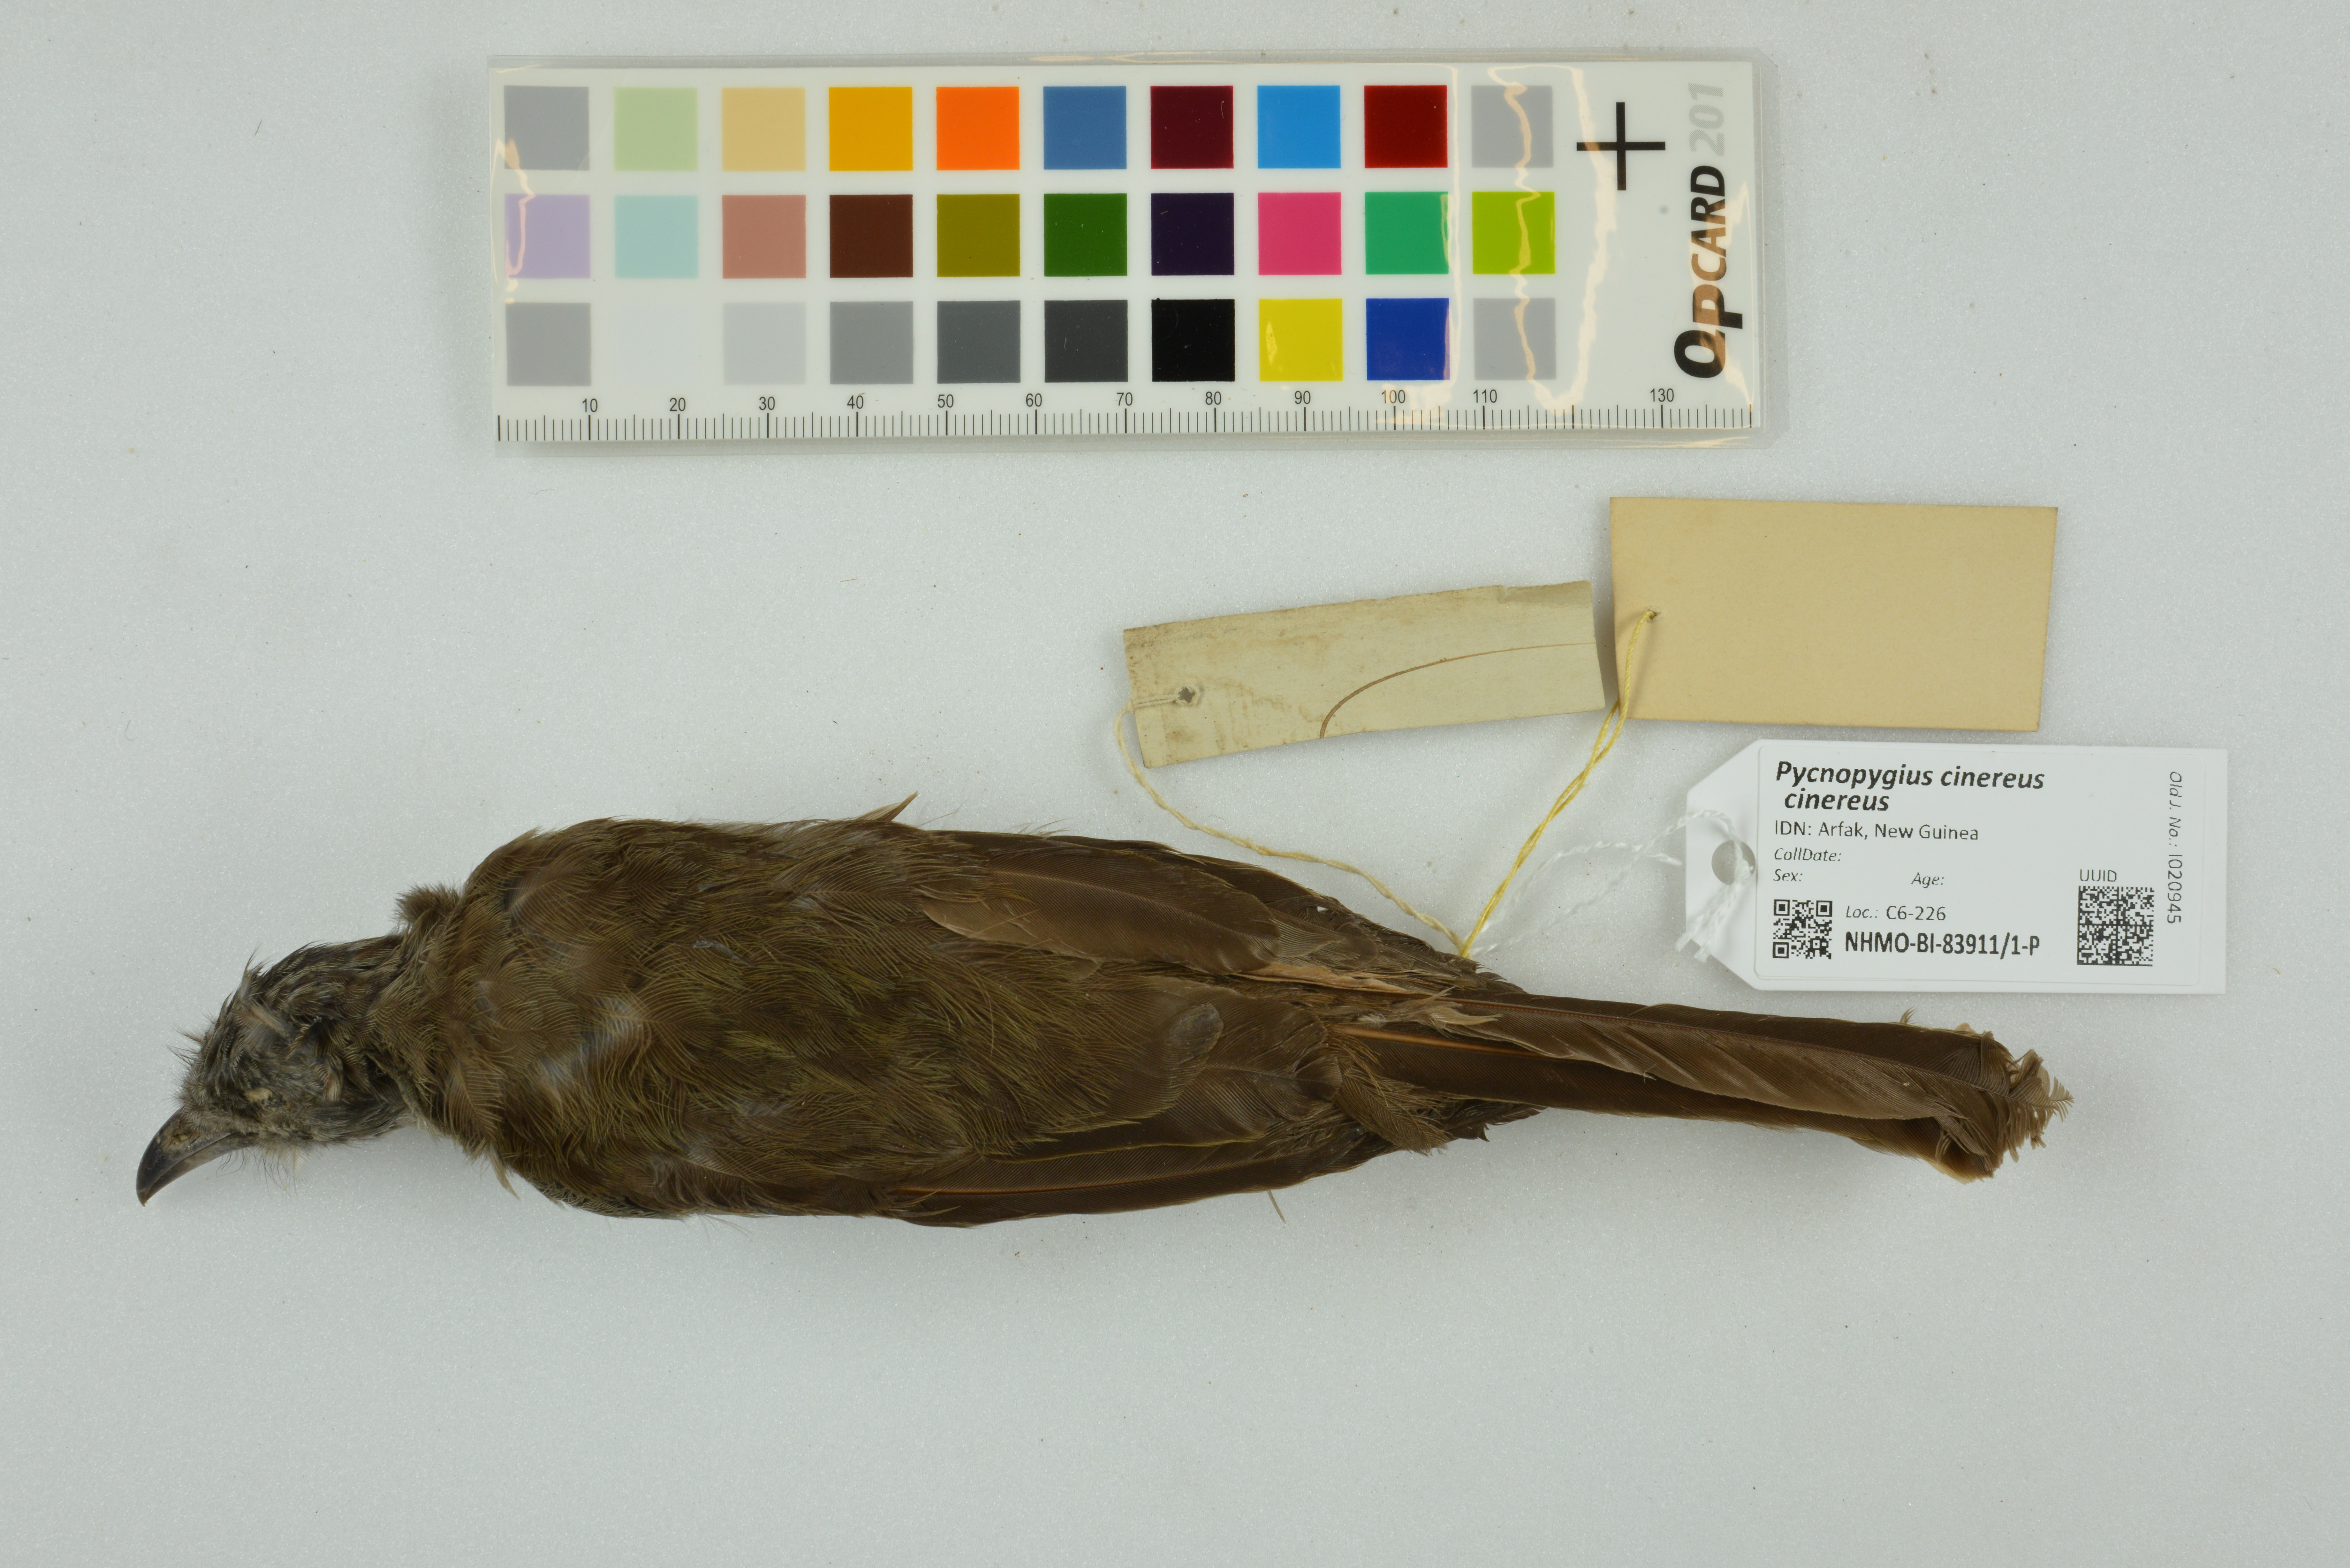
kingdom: Animalia
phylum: Chordata
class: Aves
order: Passeriformes
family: Meliphagidae
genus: Pycnopygius
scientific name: Pycnopygius cinereus
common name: Marbled honeyeater
